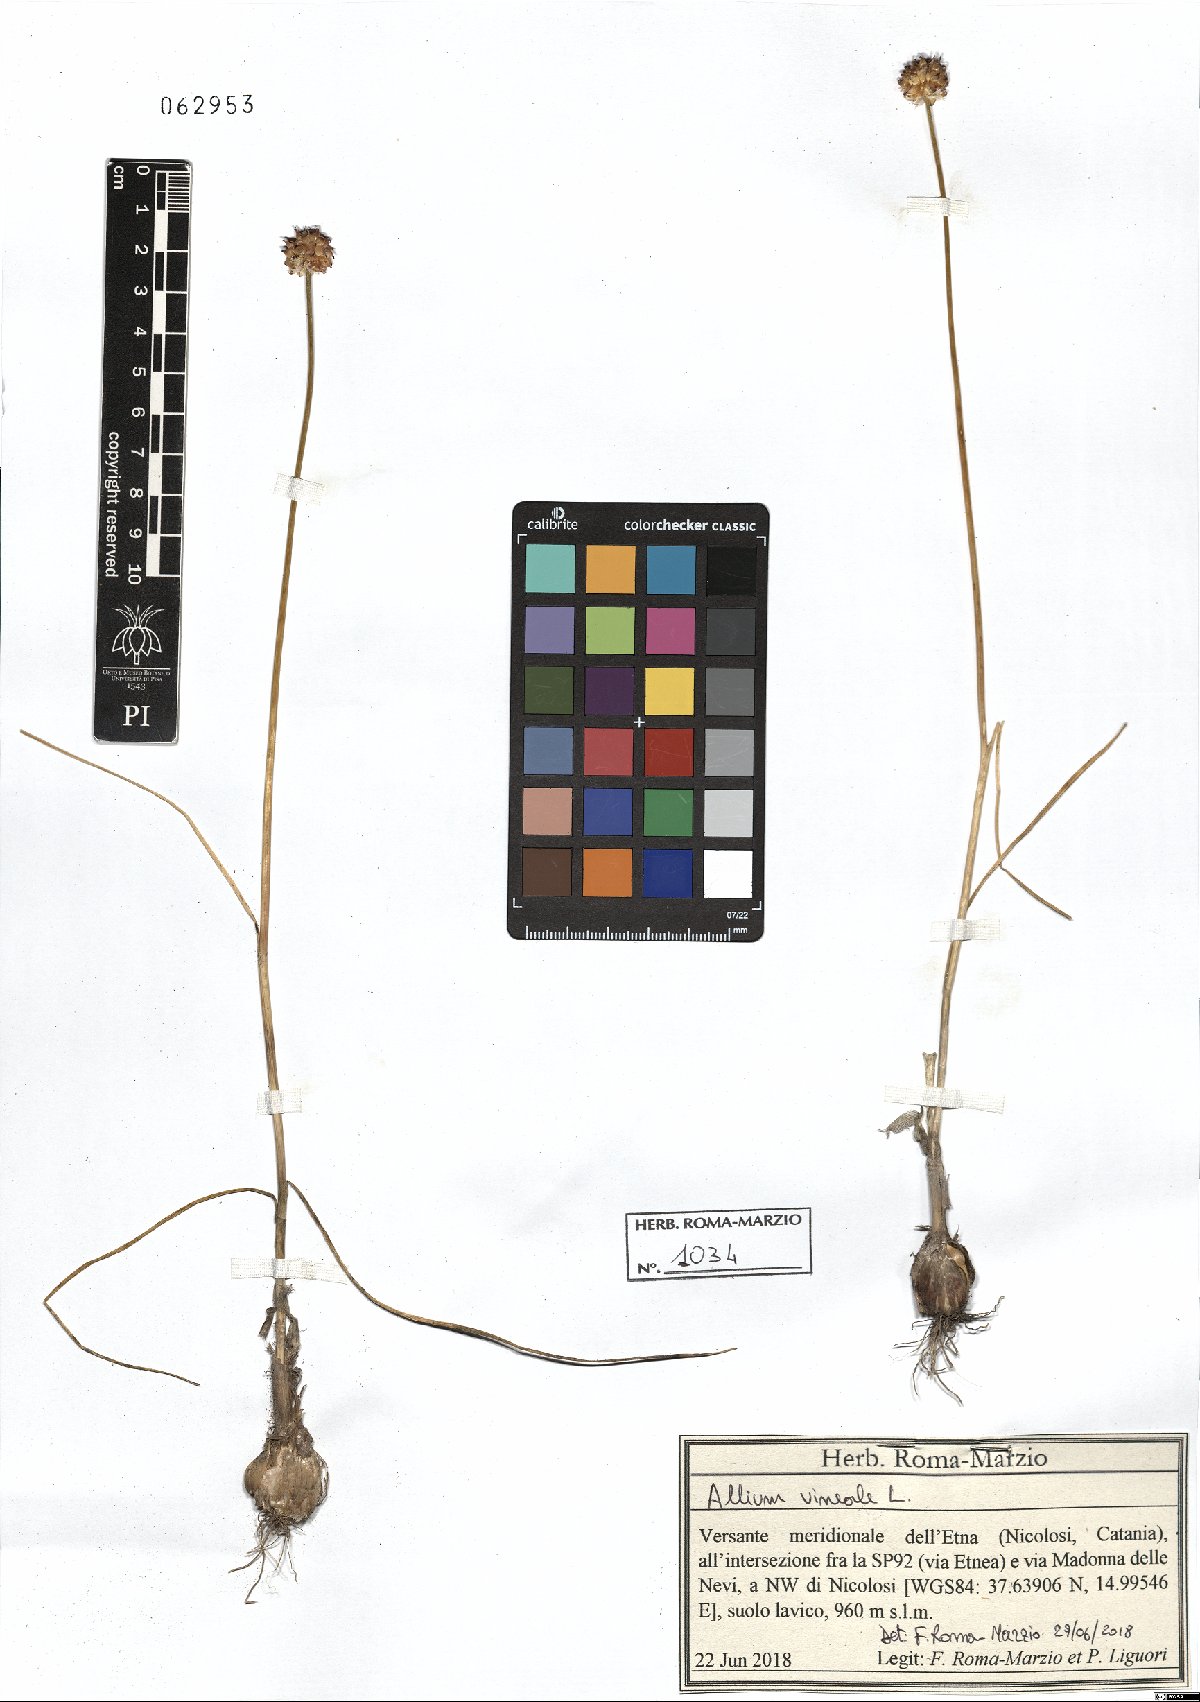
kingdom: Plantae
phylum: Tracheophyta
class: Liliopsida
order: Asparagales
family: Amaryllidaceae
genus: Allium
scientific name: Allium vineale
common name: Crow garlic
